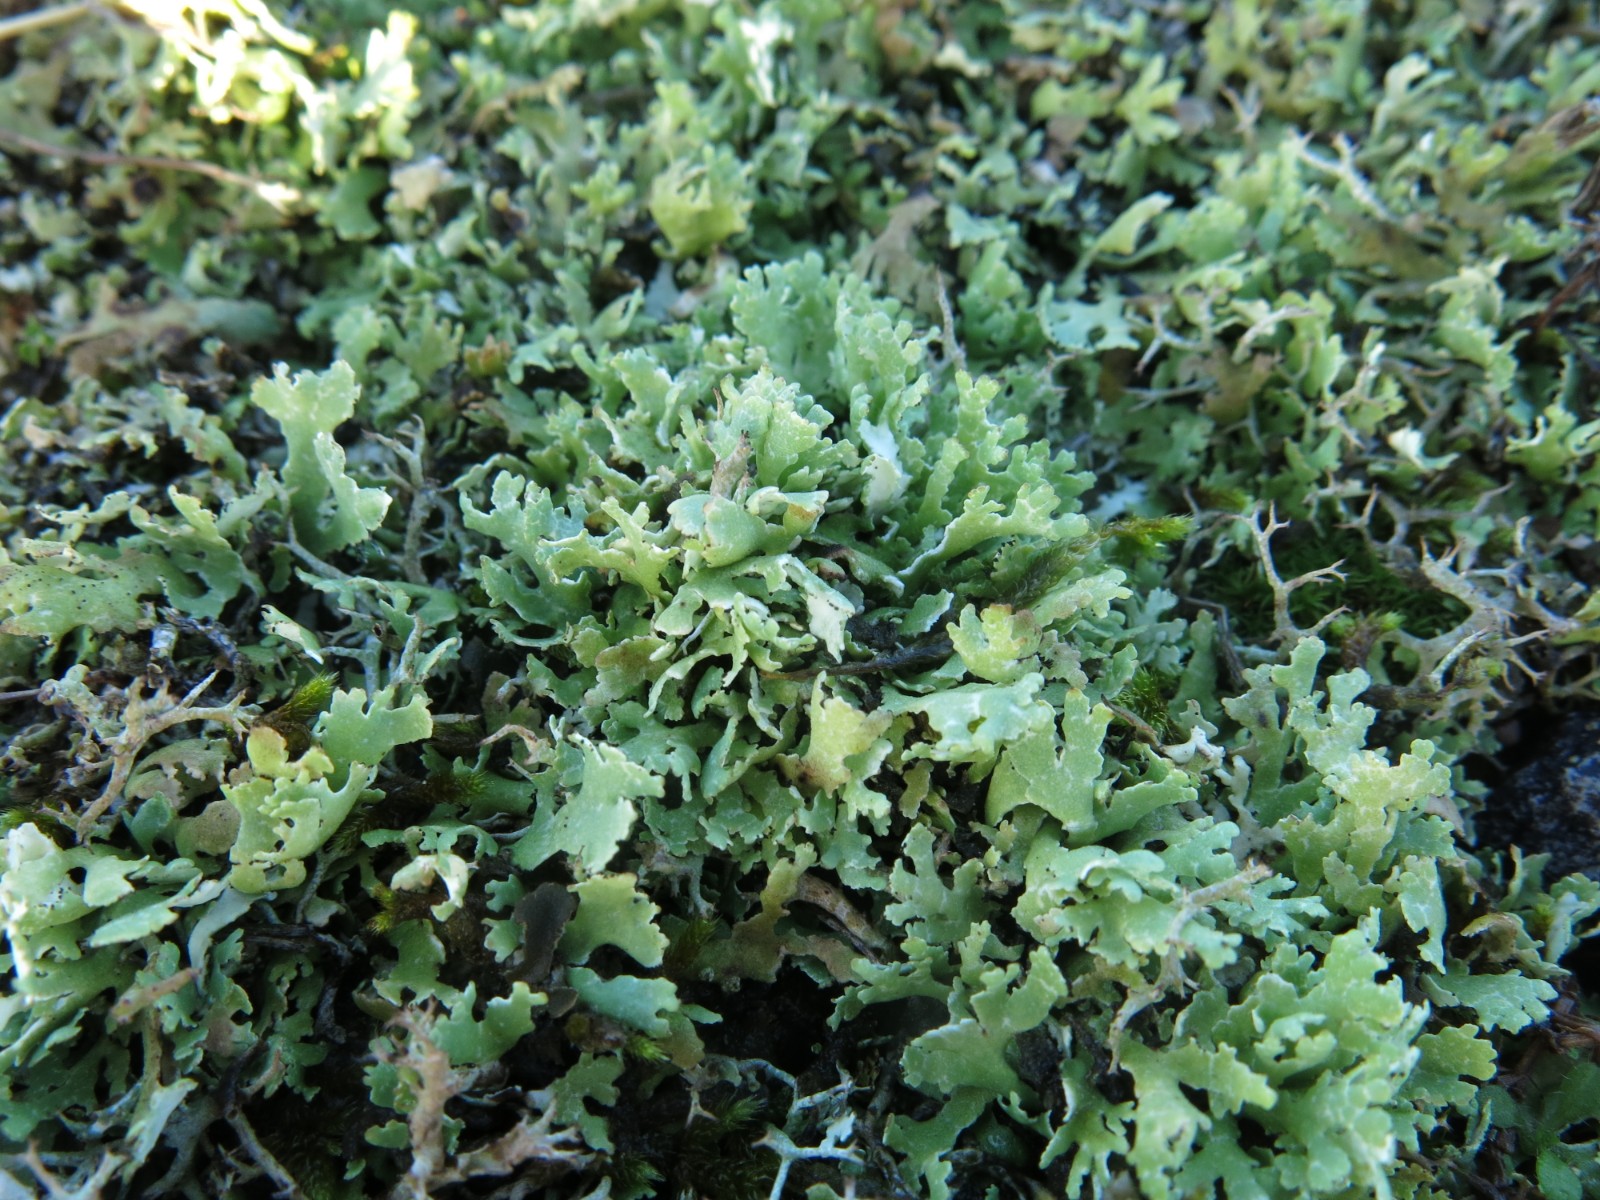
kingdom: Fungi
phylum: Ascomycota
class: Lecanoromycetes
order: Lecanorales
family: Cladoniaceae
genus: Cladonia
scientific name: Cladonia foliacea
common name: fliget bægerlav
